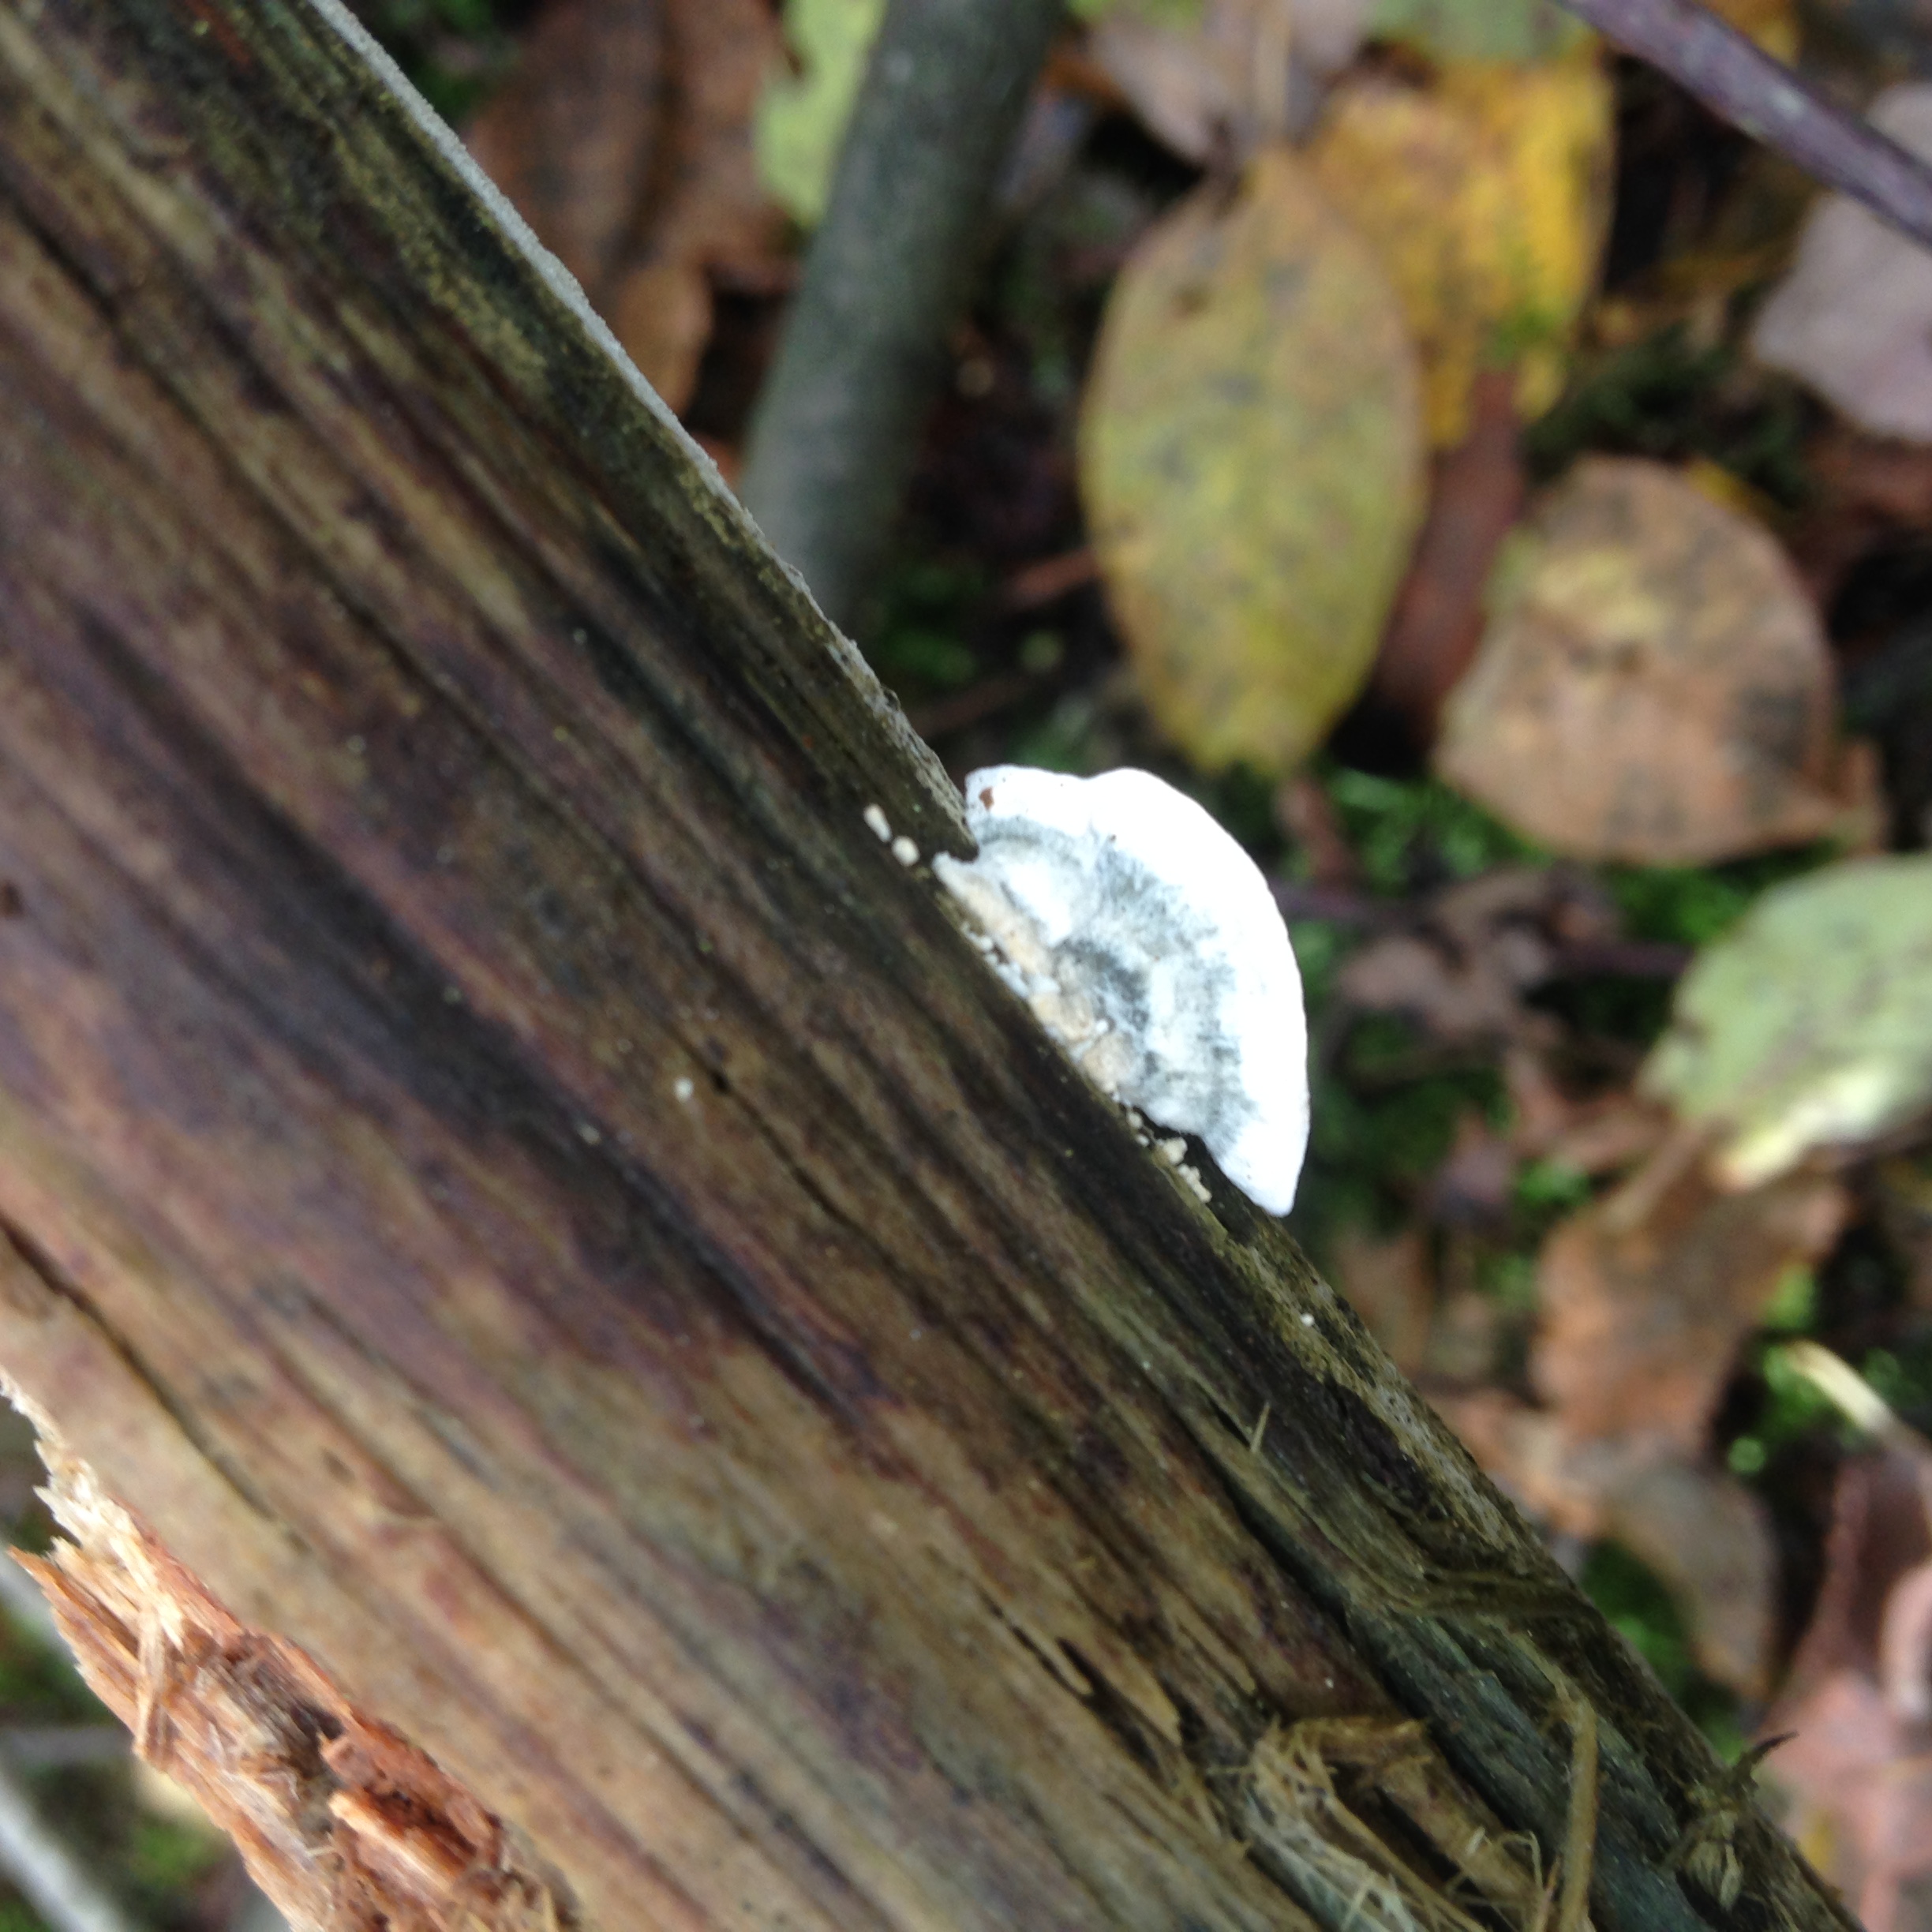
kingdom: Fungi
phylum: Basidiomycota
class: Agaricomycetes
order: Polyporales
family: Polyporaceae
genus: Cyanosporus
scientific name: Cyanosporus caesius
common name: Blue cheese polypore
